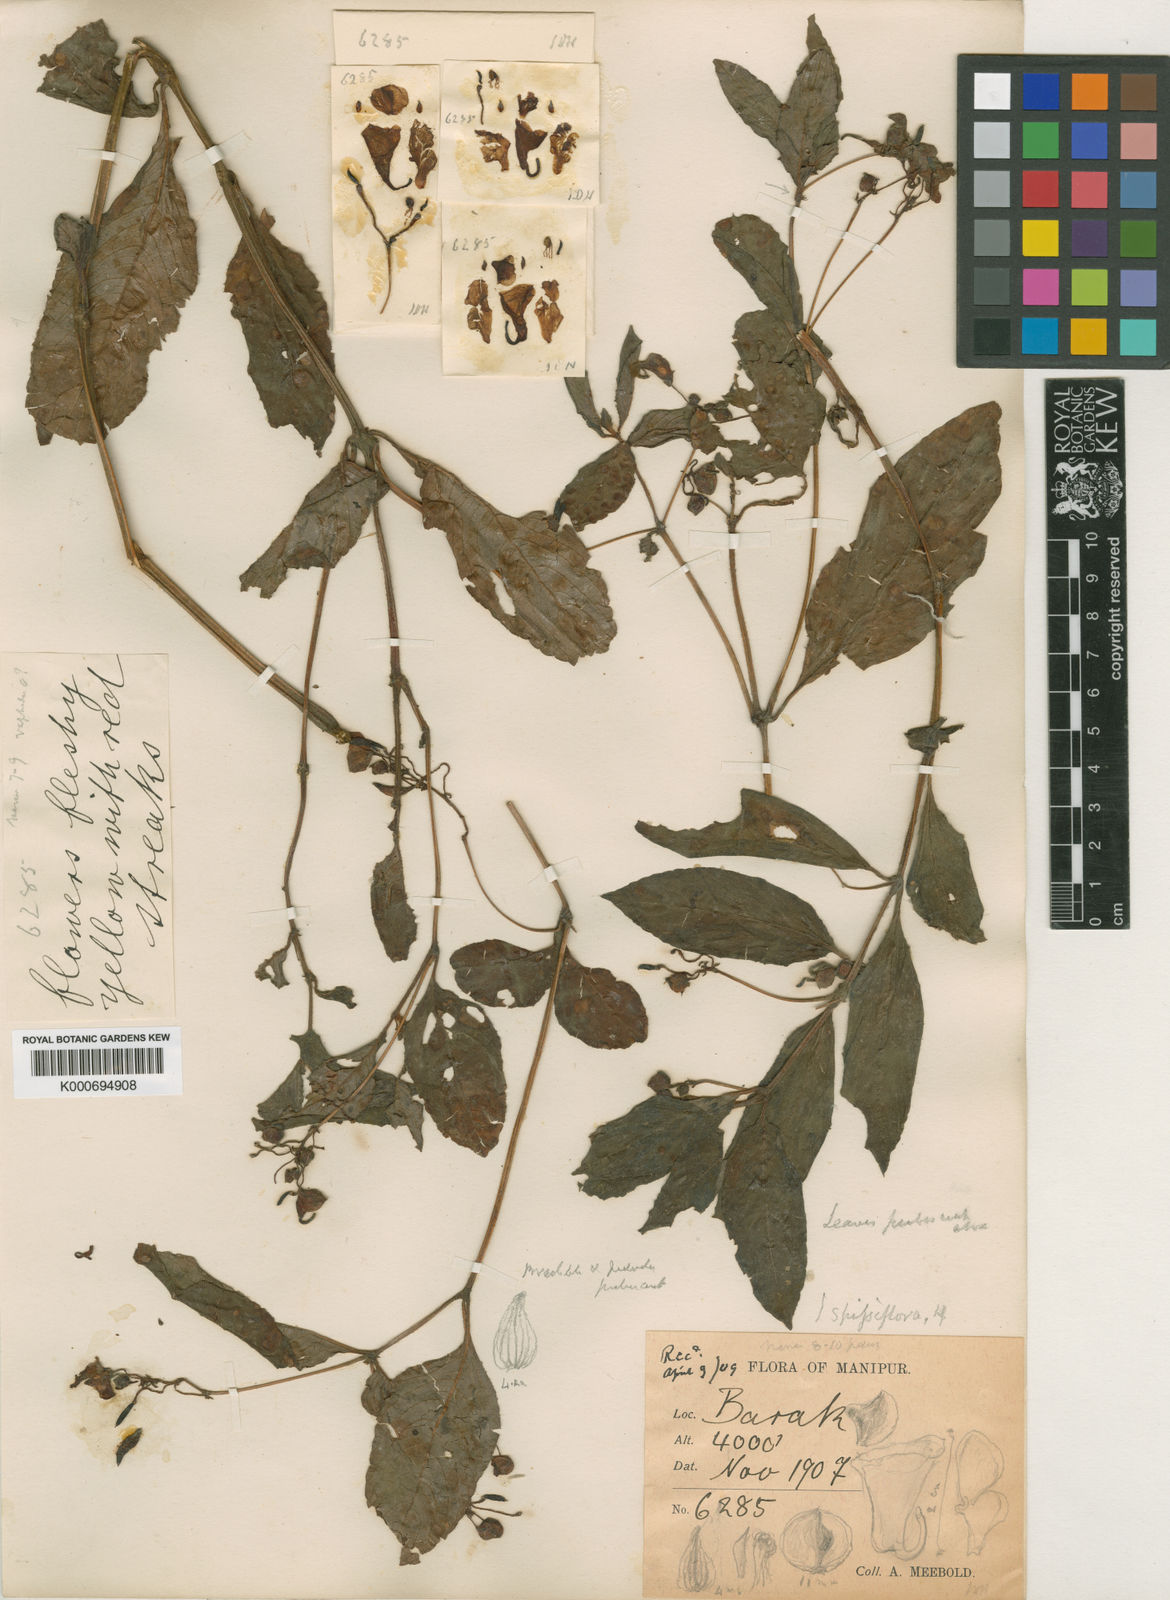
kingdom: Plantae
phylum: Tracheophyta
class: Magnoliopsida
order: Ericales
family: Balsaminaceae
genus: Impatiens
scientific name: Impatiens spissiflora
